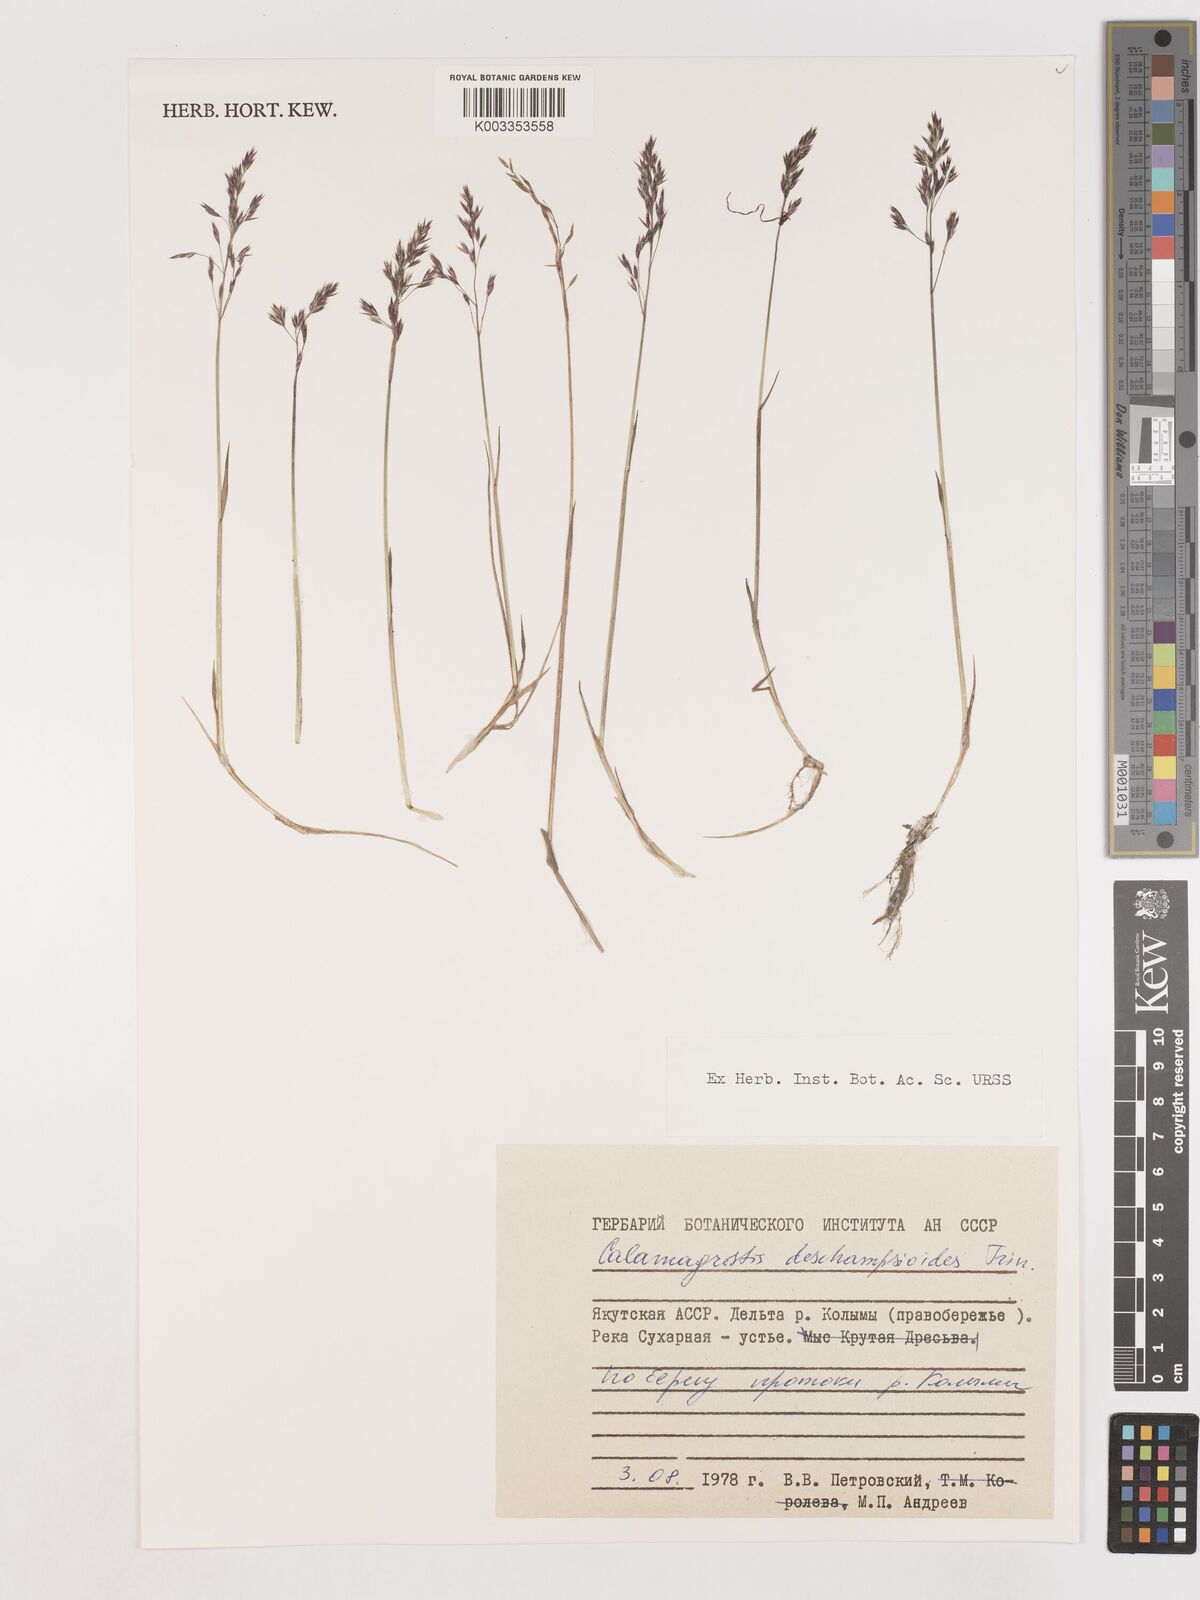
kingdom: Plantae
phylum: Tracheophyta
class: Liliopsida
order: Poales
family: Poaceae
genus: Calamagrostis
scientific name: Calamagrostis deschampsioides
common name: Circumpolar reedgrass
